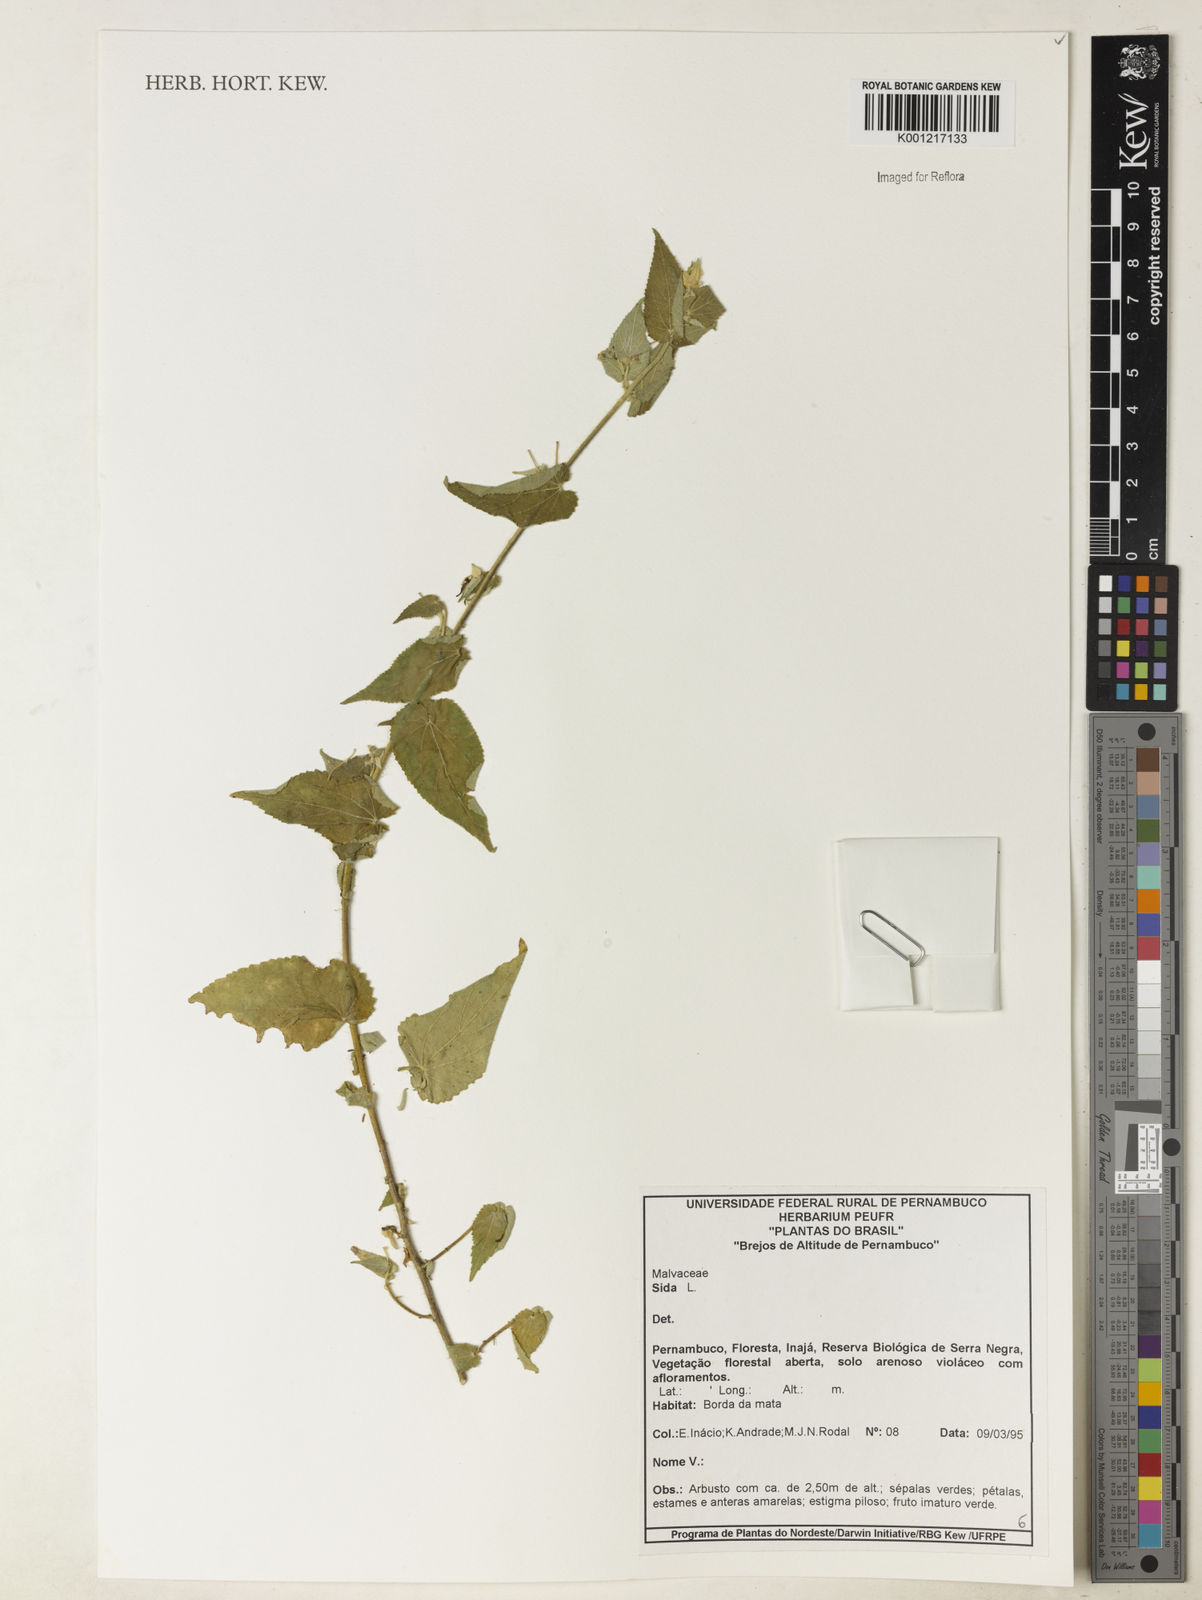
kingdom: Plantae
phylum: Tracheophyta
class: Magnoliopsida
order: Malvales
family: Malvaceae
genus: Sida
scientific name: Sida
